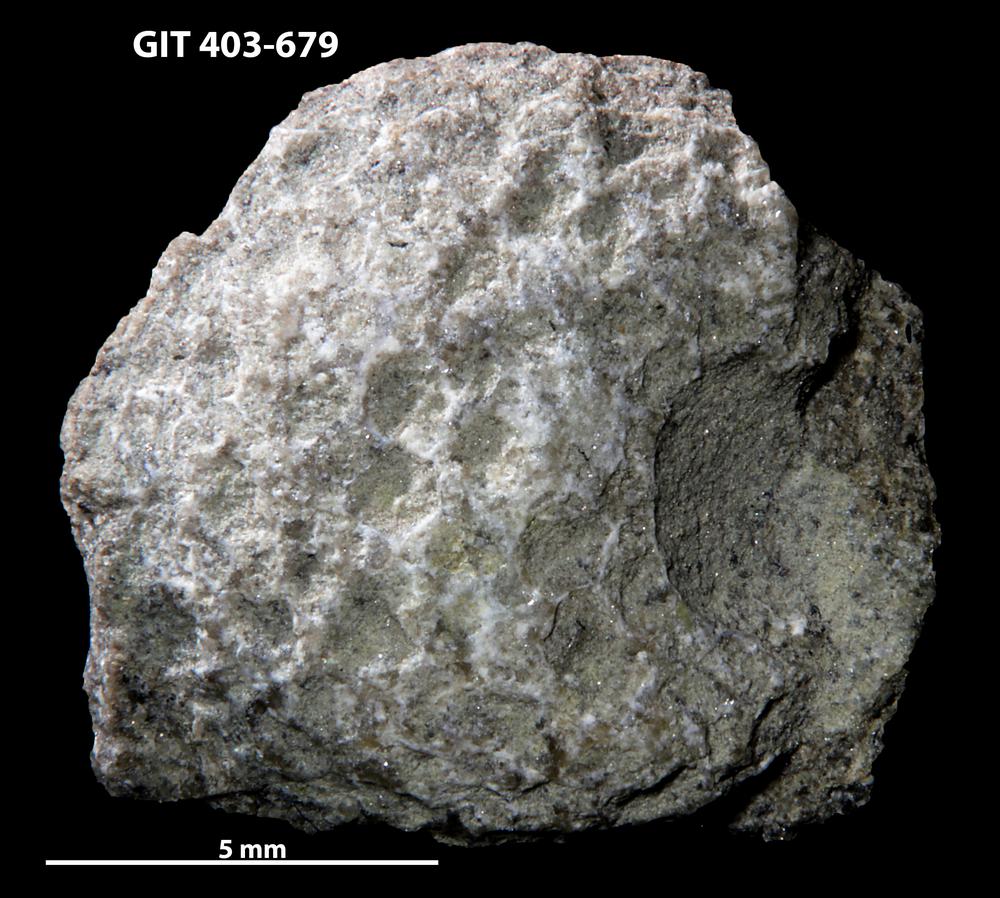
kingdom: Animalia
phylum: Cnidaria
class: Anthozoa
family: Favositidae
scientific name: Favositidae
